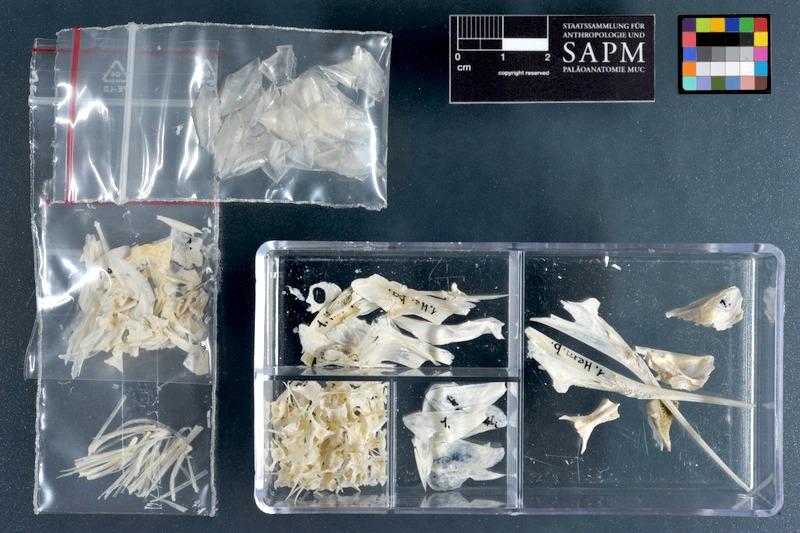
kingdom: Animalia
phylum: Chordata
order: Beloniformes
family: Hemiramphidae
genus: Hemiramphus
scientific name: Hemiramphus balao
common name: Balao
